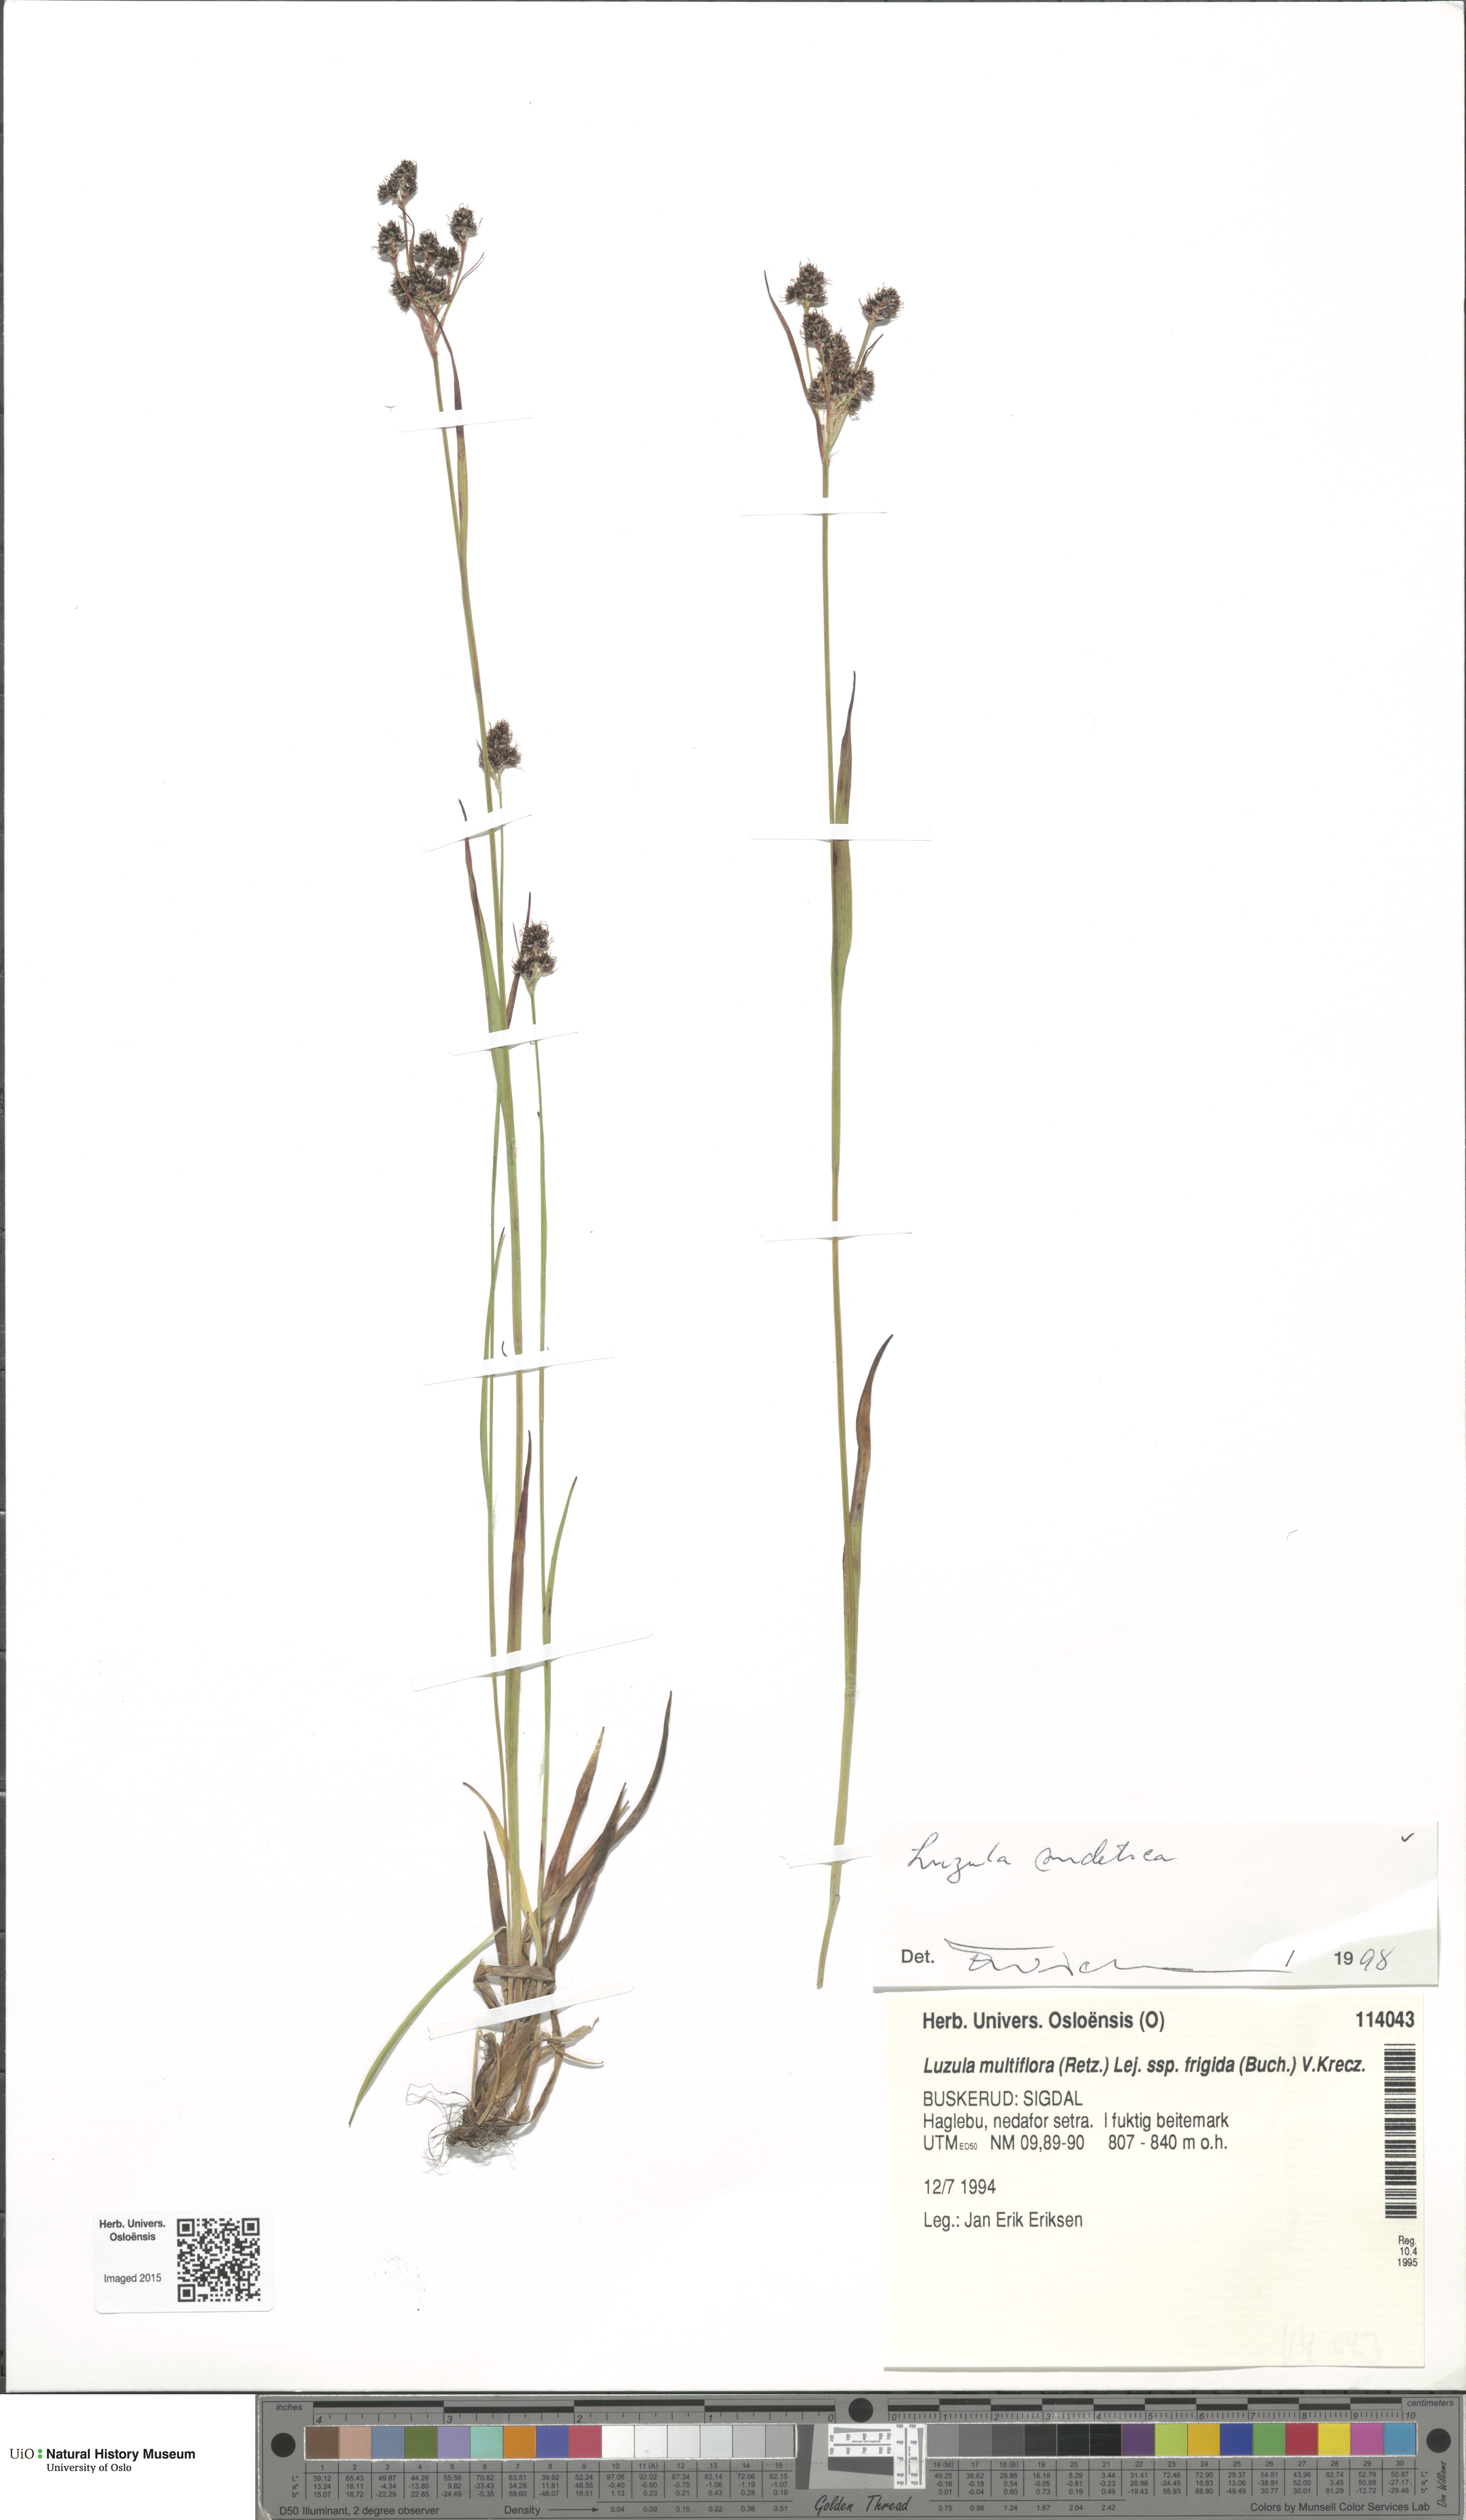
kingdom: Plantae
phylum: Tracheophyta
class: Liliopsida
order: Poales
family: Juncaceae
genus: Luzula
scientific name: Luzula sudetica
